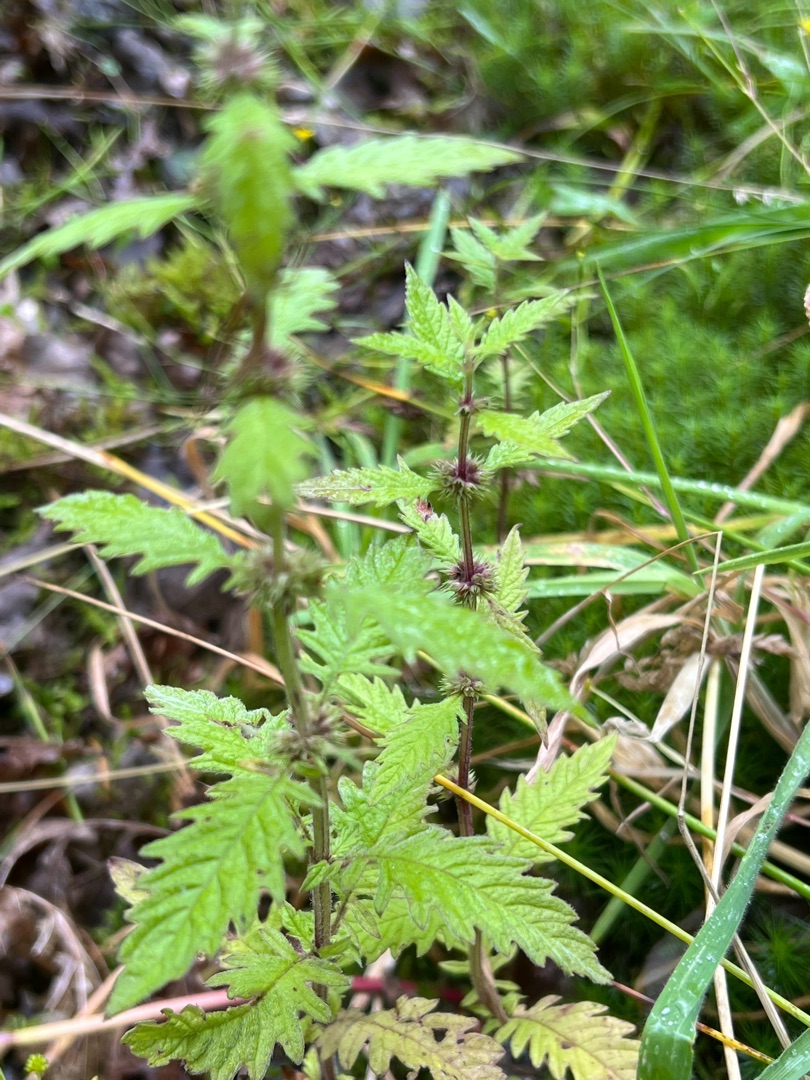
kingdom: Plantae
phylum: Tracheophyta
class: Magnoliopsida
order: Lamiales
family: Lamiaceae
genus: Lycopus
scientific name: Lycopus europaeus
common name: Sværtevæld
